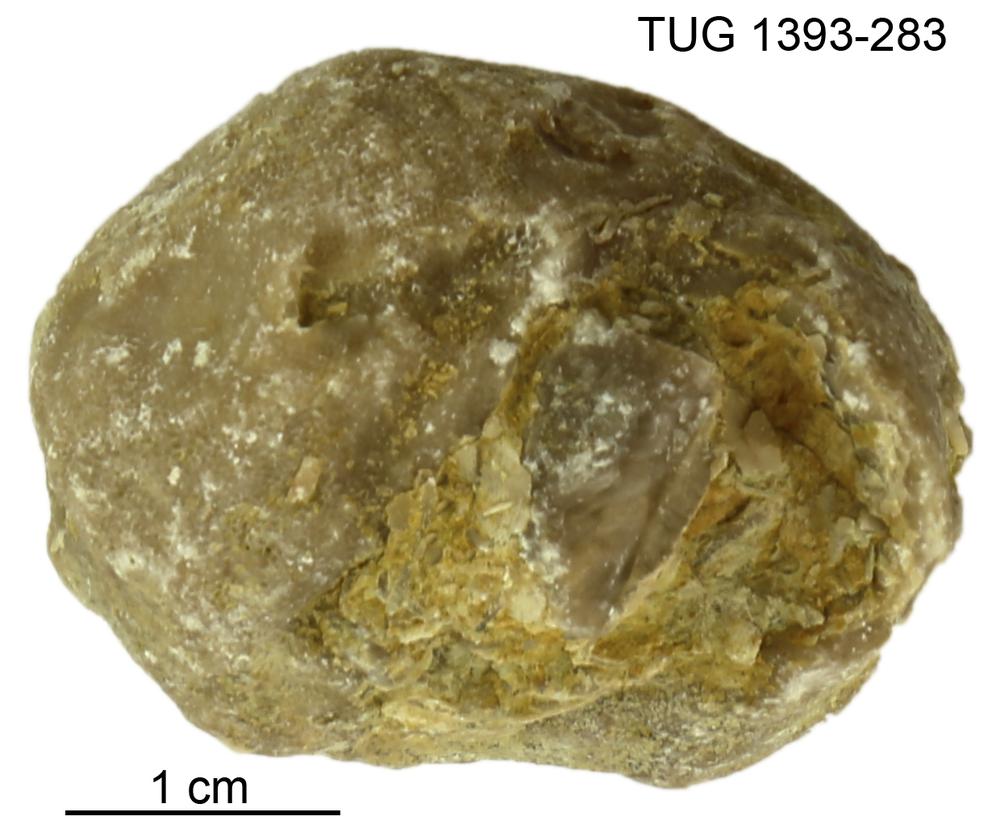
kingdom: Animalia
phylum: Bryozoa
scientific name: Bryozoa
